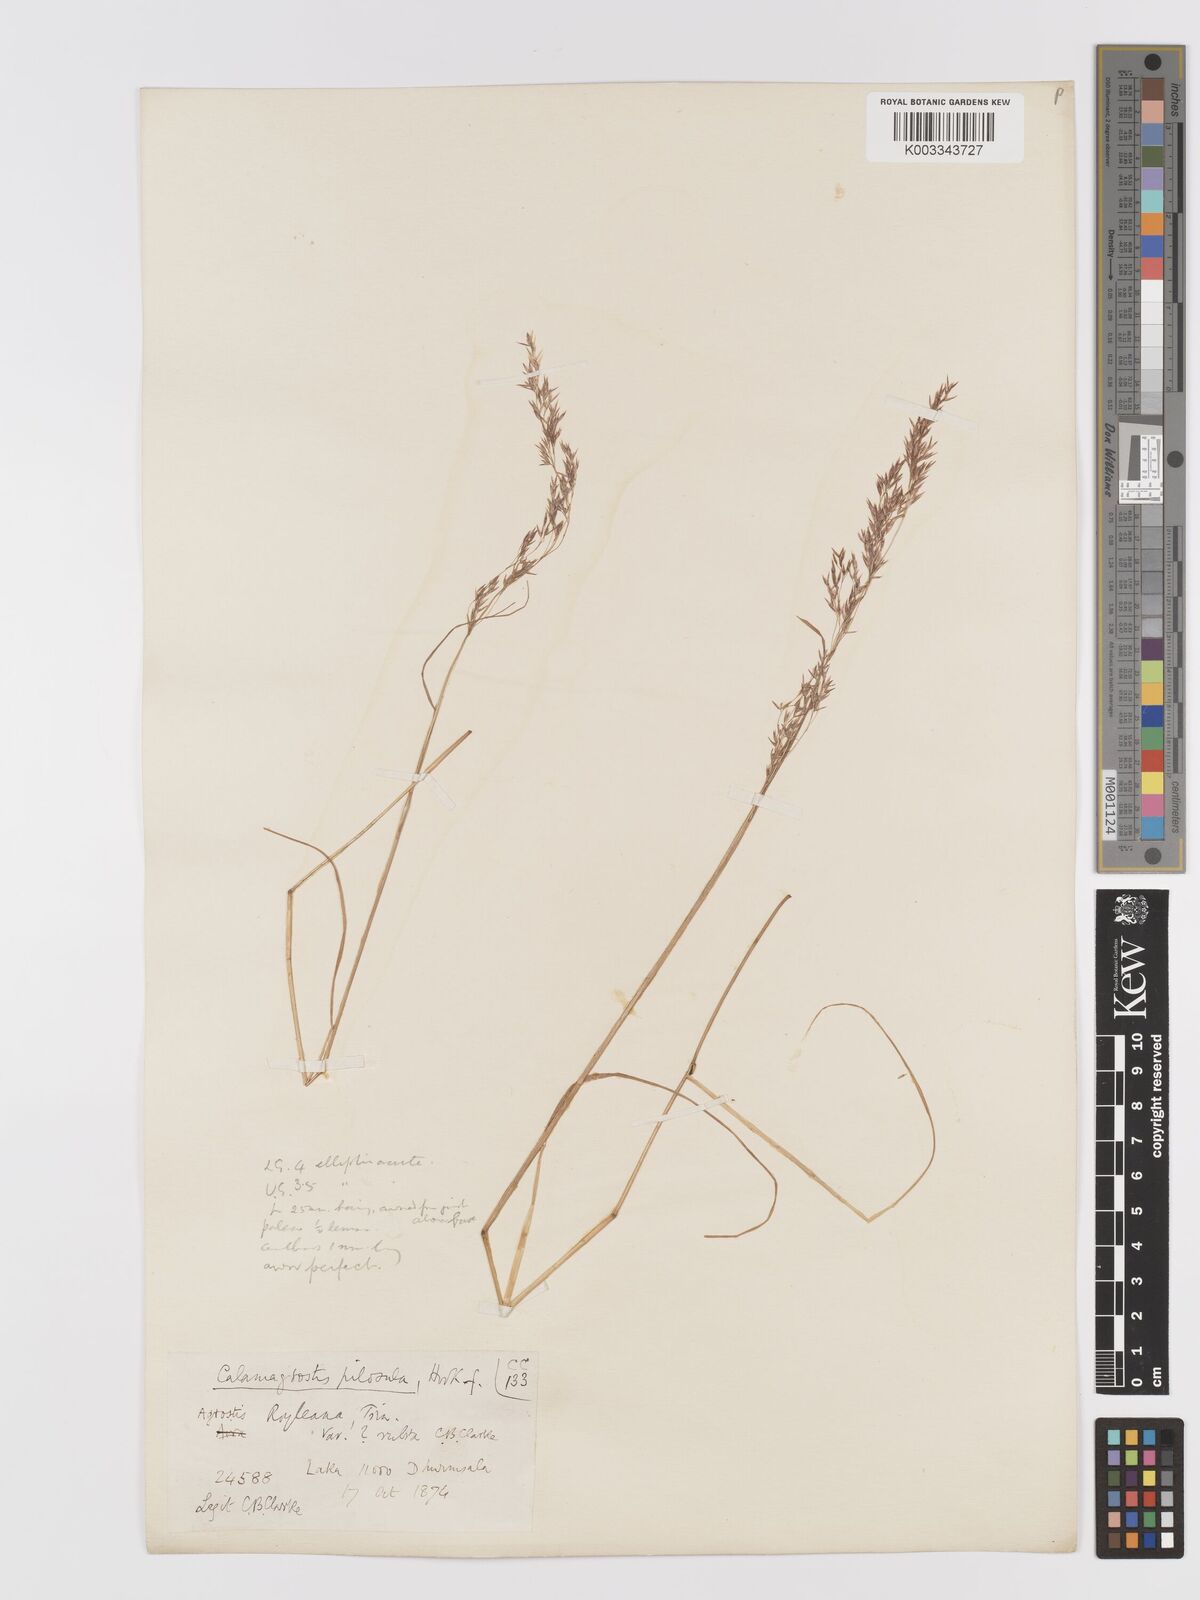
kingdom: Plantae
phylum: Tracheophyta
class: Liliopsida
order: Poales
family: Poaceae
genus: Agrostis
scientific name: Agrostis pilosula
